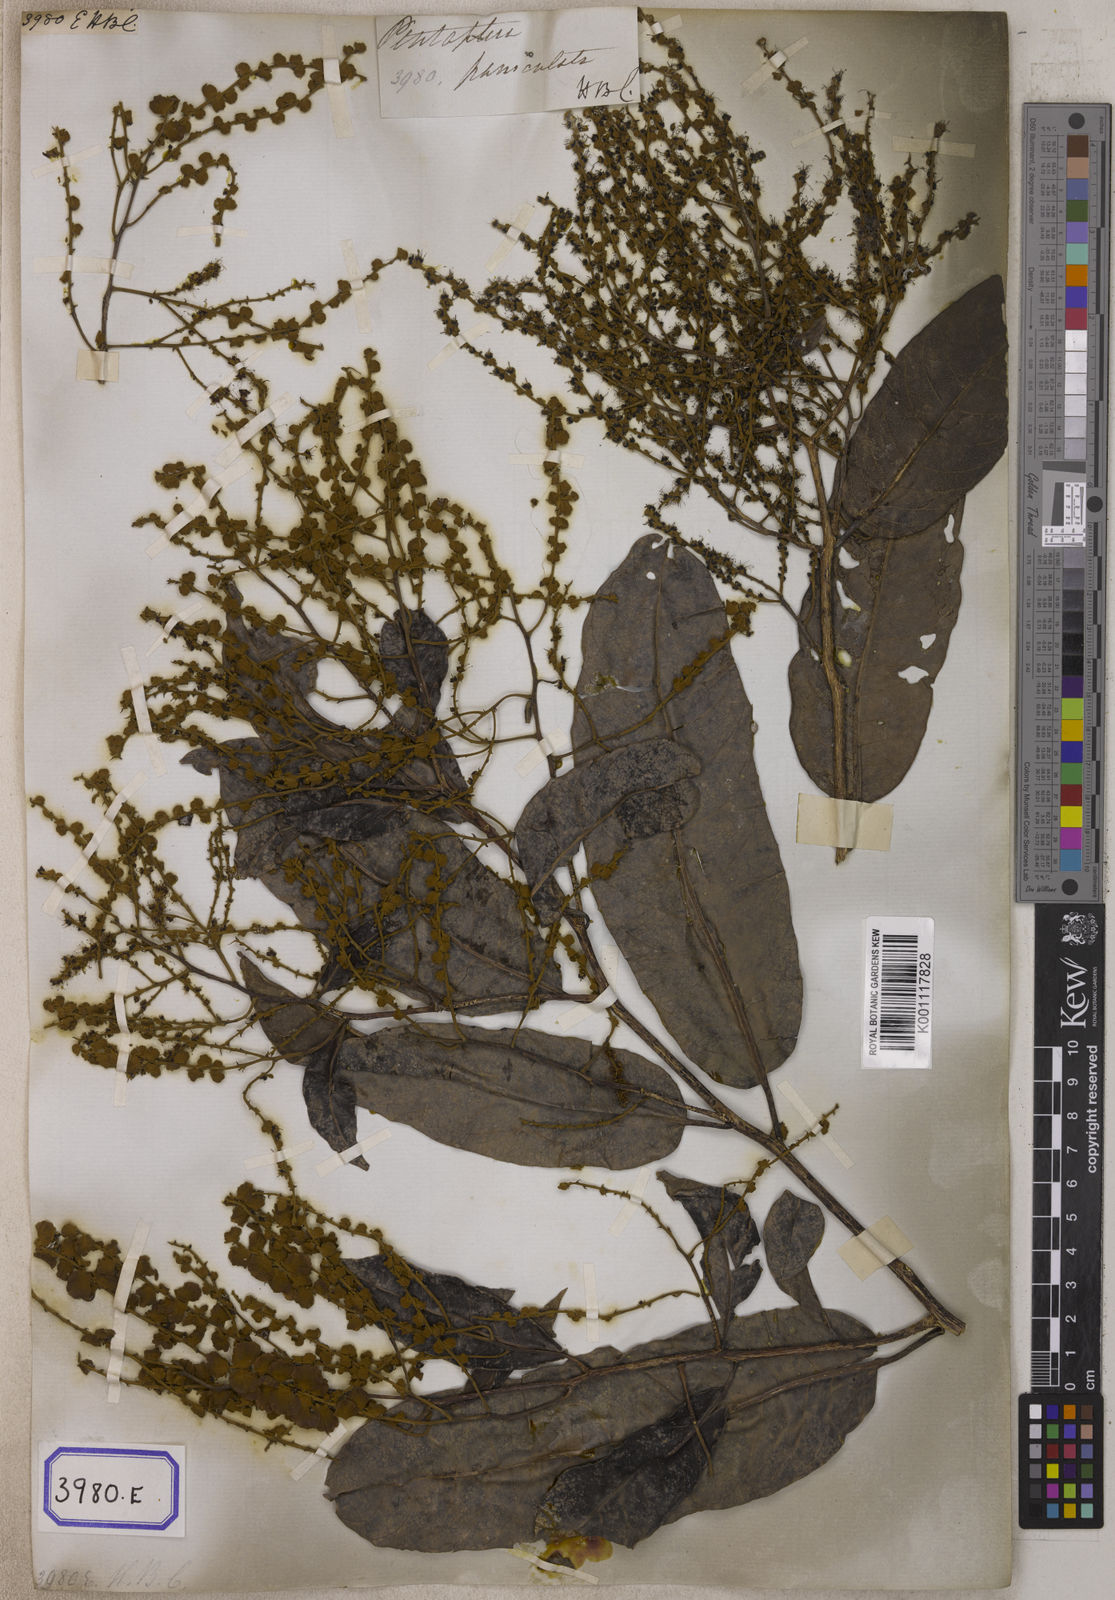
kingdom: Plantae
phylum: Tracheophyta
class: Magnoliopsida
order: Myrtales
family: Combretaceae
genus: Terminalia
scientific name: Terminalia
